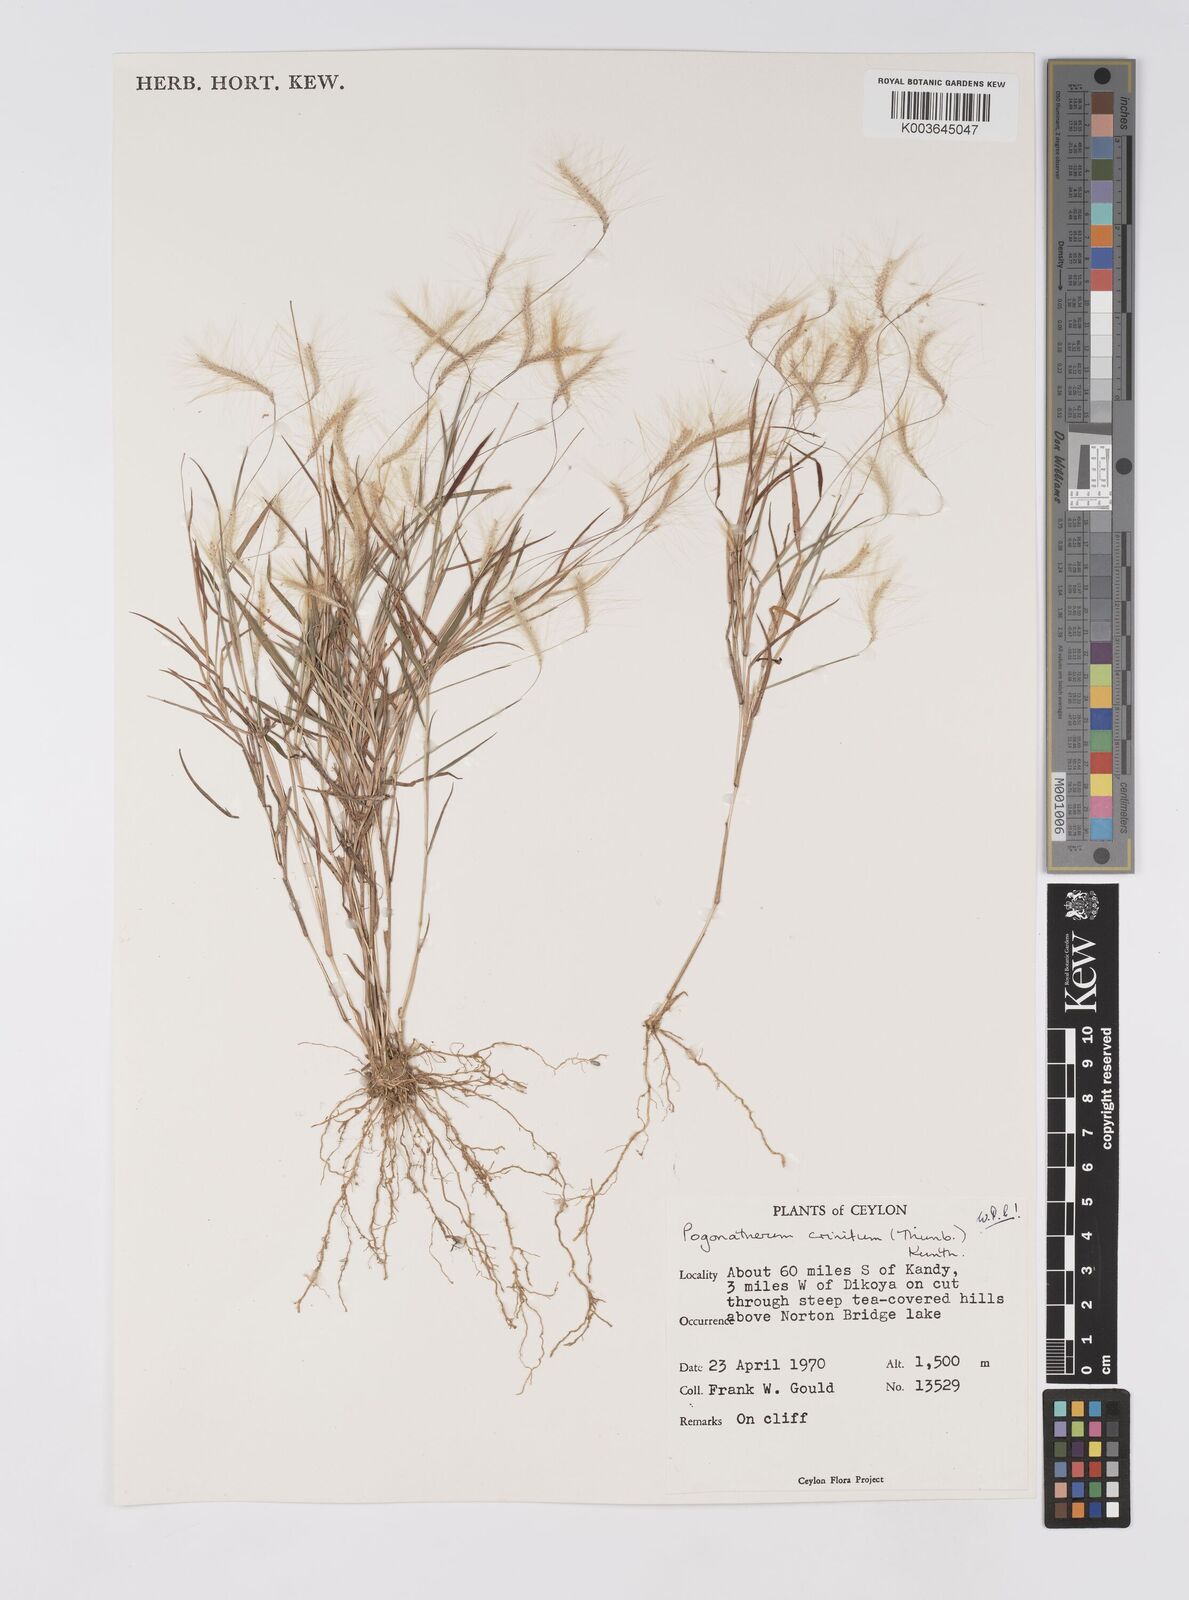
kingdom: Plantae
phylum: Tracheophyta
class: Liliopsida
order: Poales
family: Poaceae
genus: Pogonatherum
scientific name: Pogonatherum crinitum
